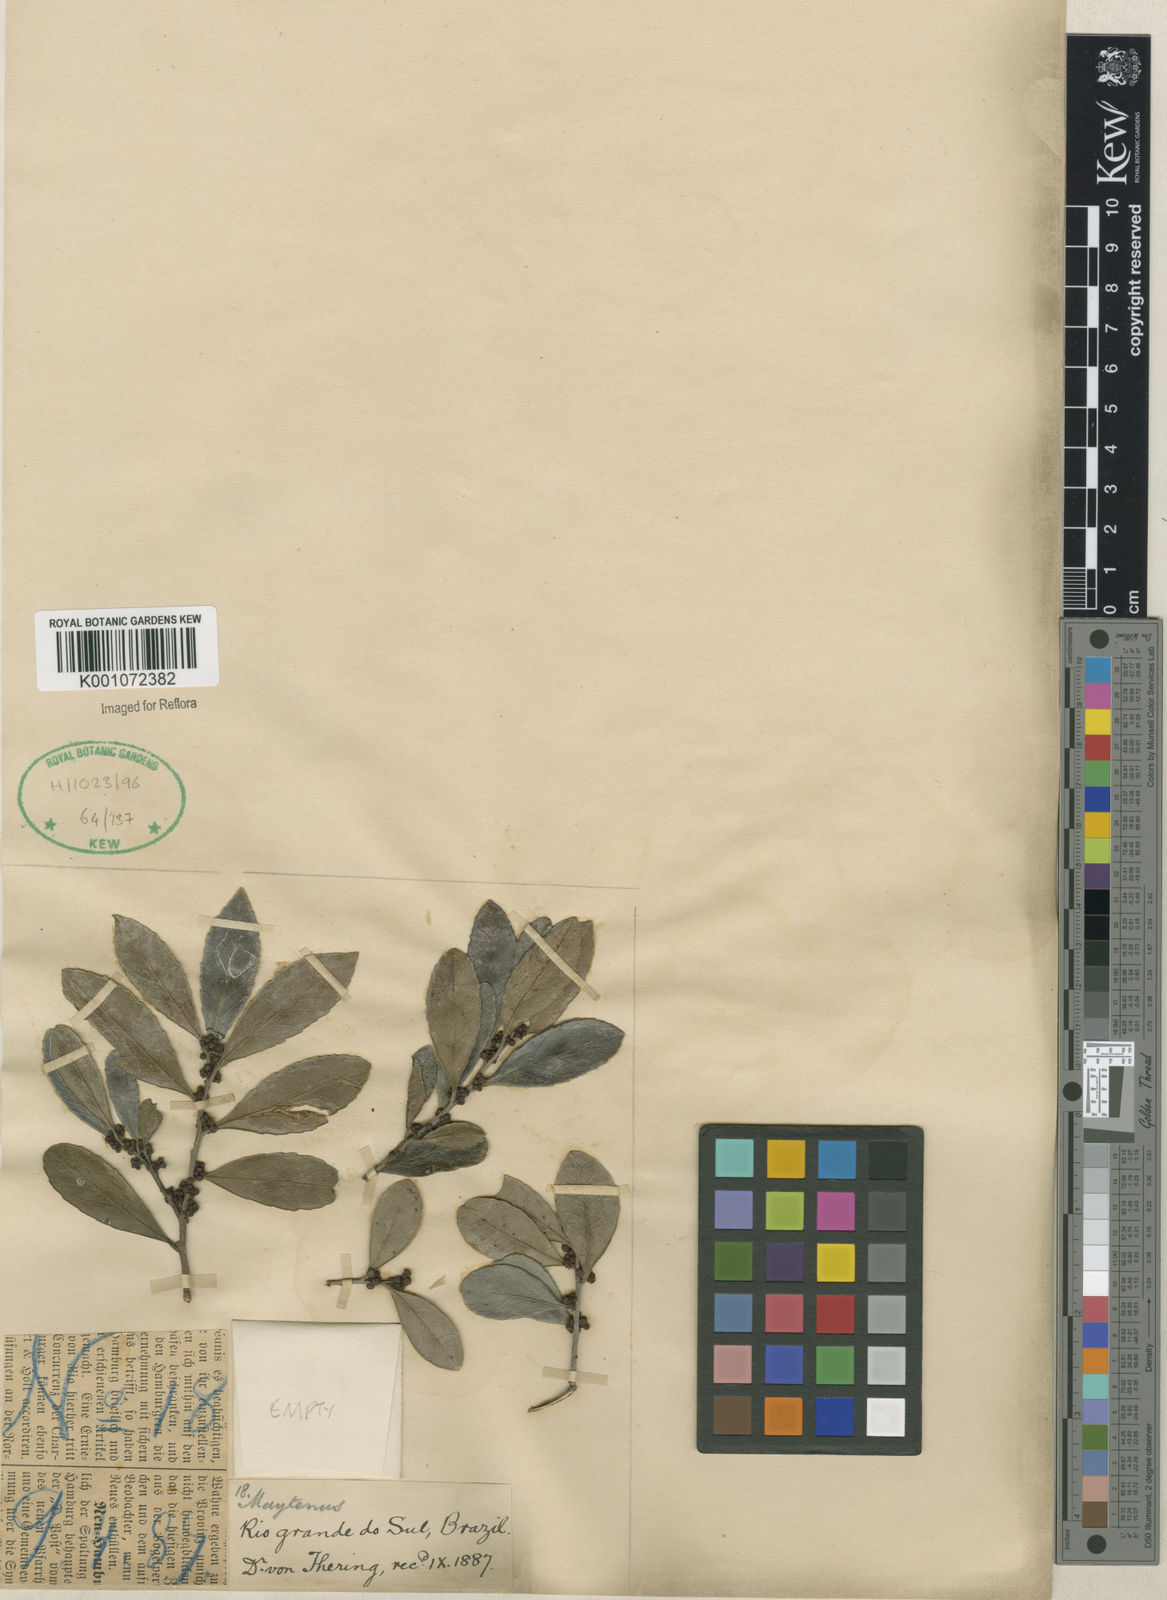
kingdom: Plantae
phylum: Tracheophyta
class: Magnoliopsida
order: Celastrales
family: Celastraceae
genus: Maytenus
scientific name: Maytenus
